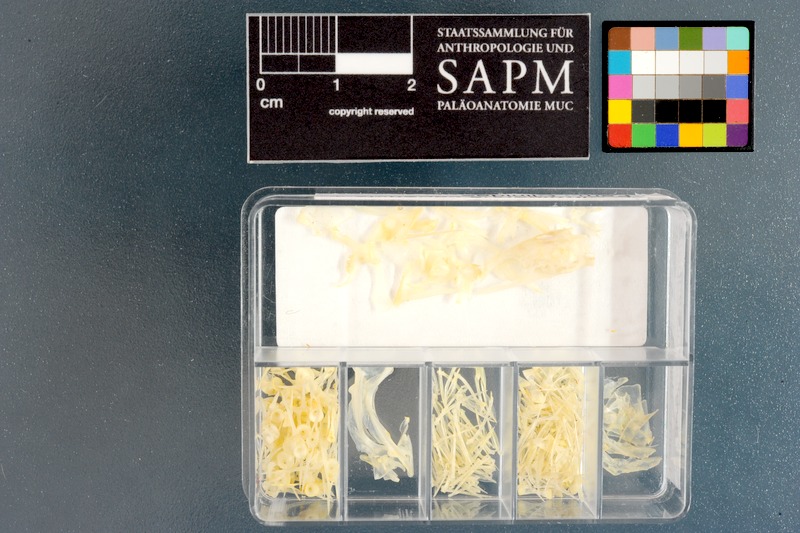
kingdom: Animalia
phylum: Chordata
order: Perciformes
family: Clinidae
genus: Cirrhibarbis
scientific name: Cirrhibarbis capensis
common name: Barbelled klipfish
